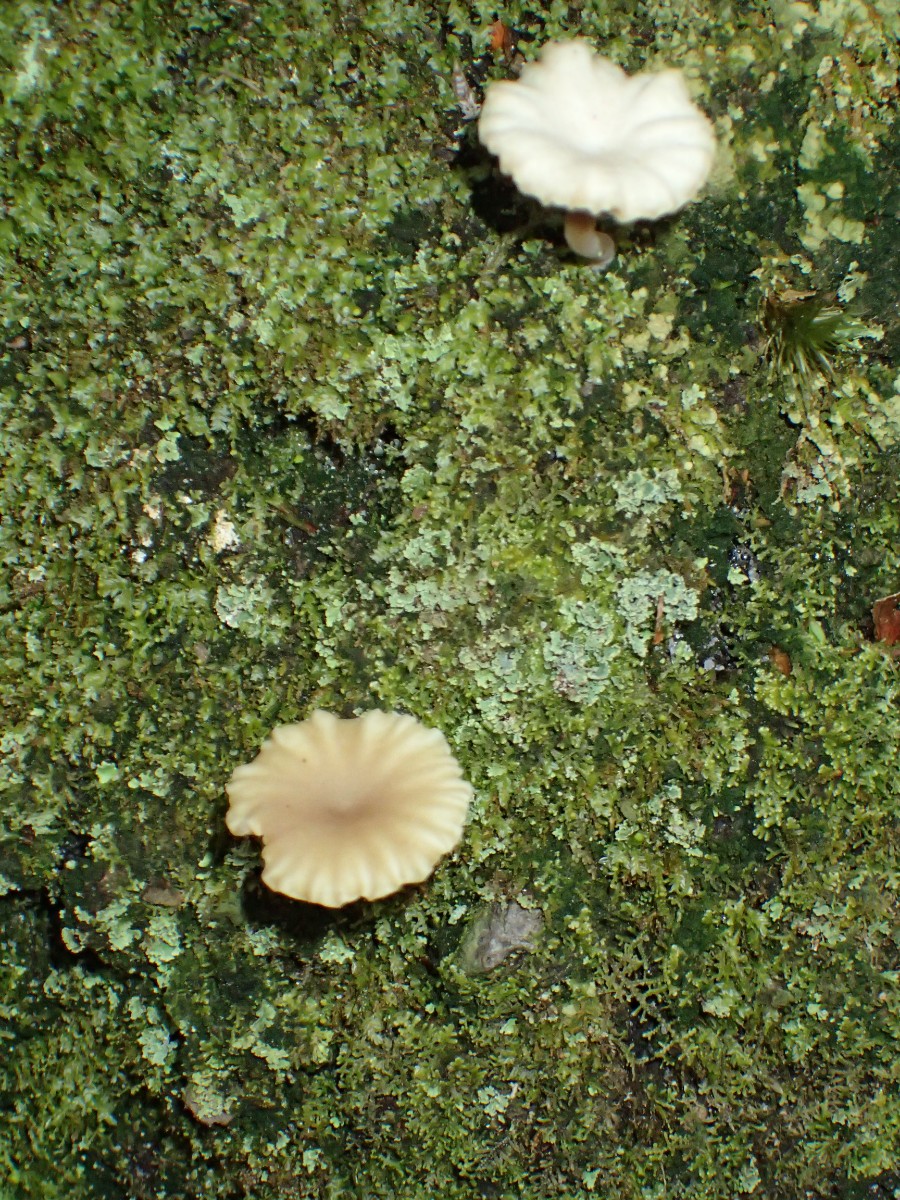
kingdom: Fungi
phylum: Basidiomycota
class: Agaricomycetes
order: Agaricales
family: Hygrophoraceae
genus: Lichenomphalia
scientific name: Lichenomphalia umbellifera
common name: tørve-lavhat
